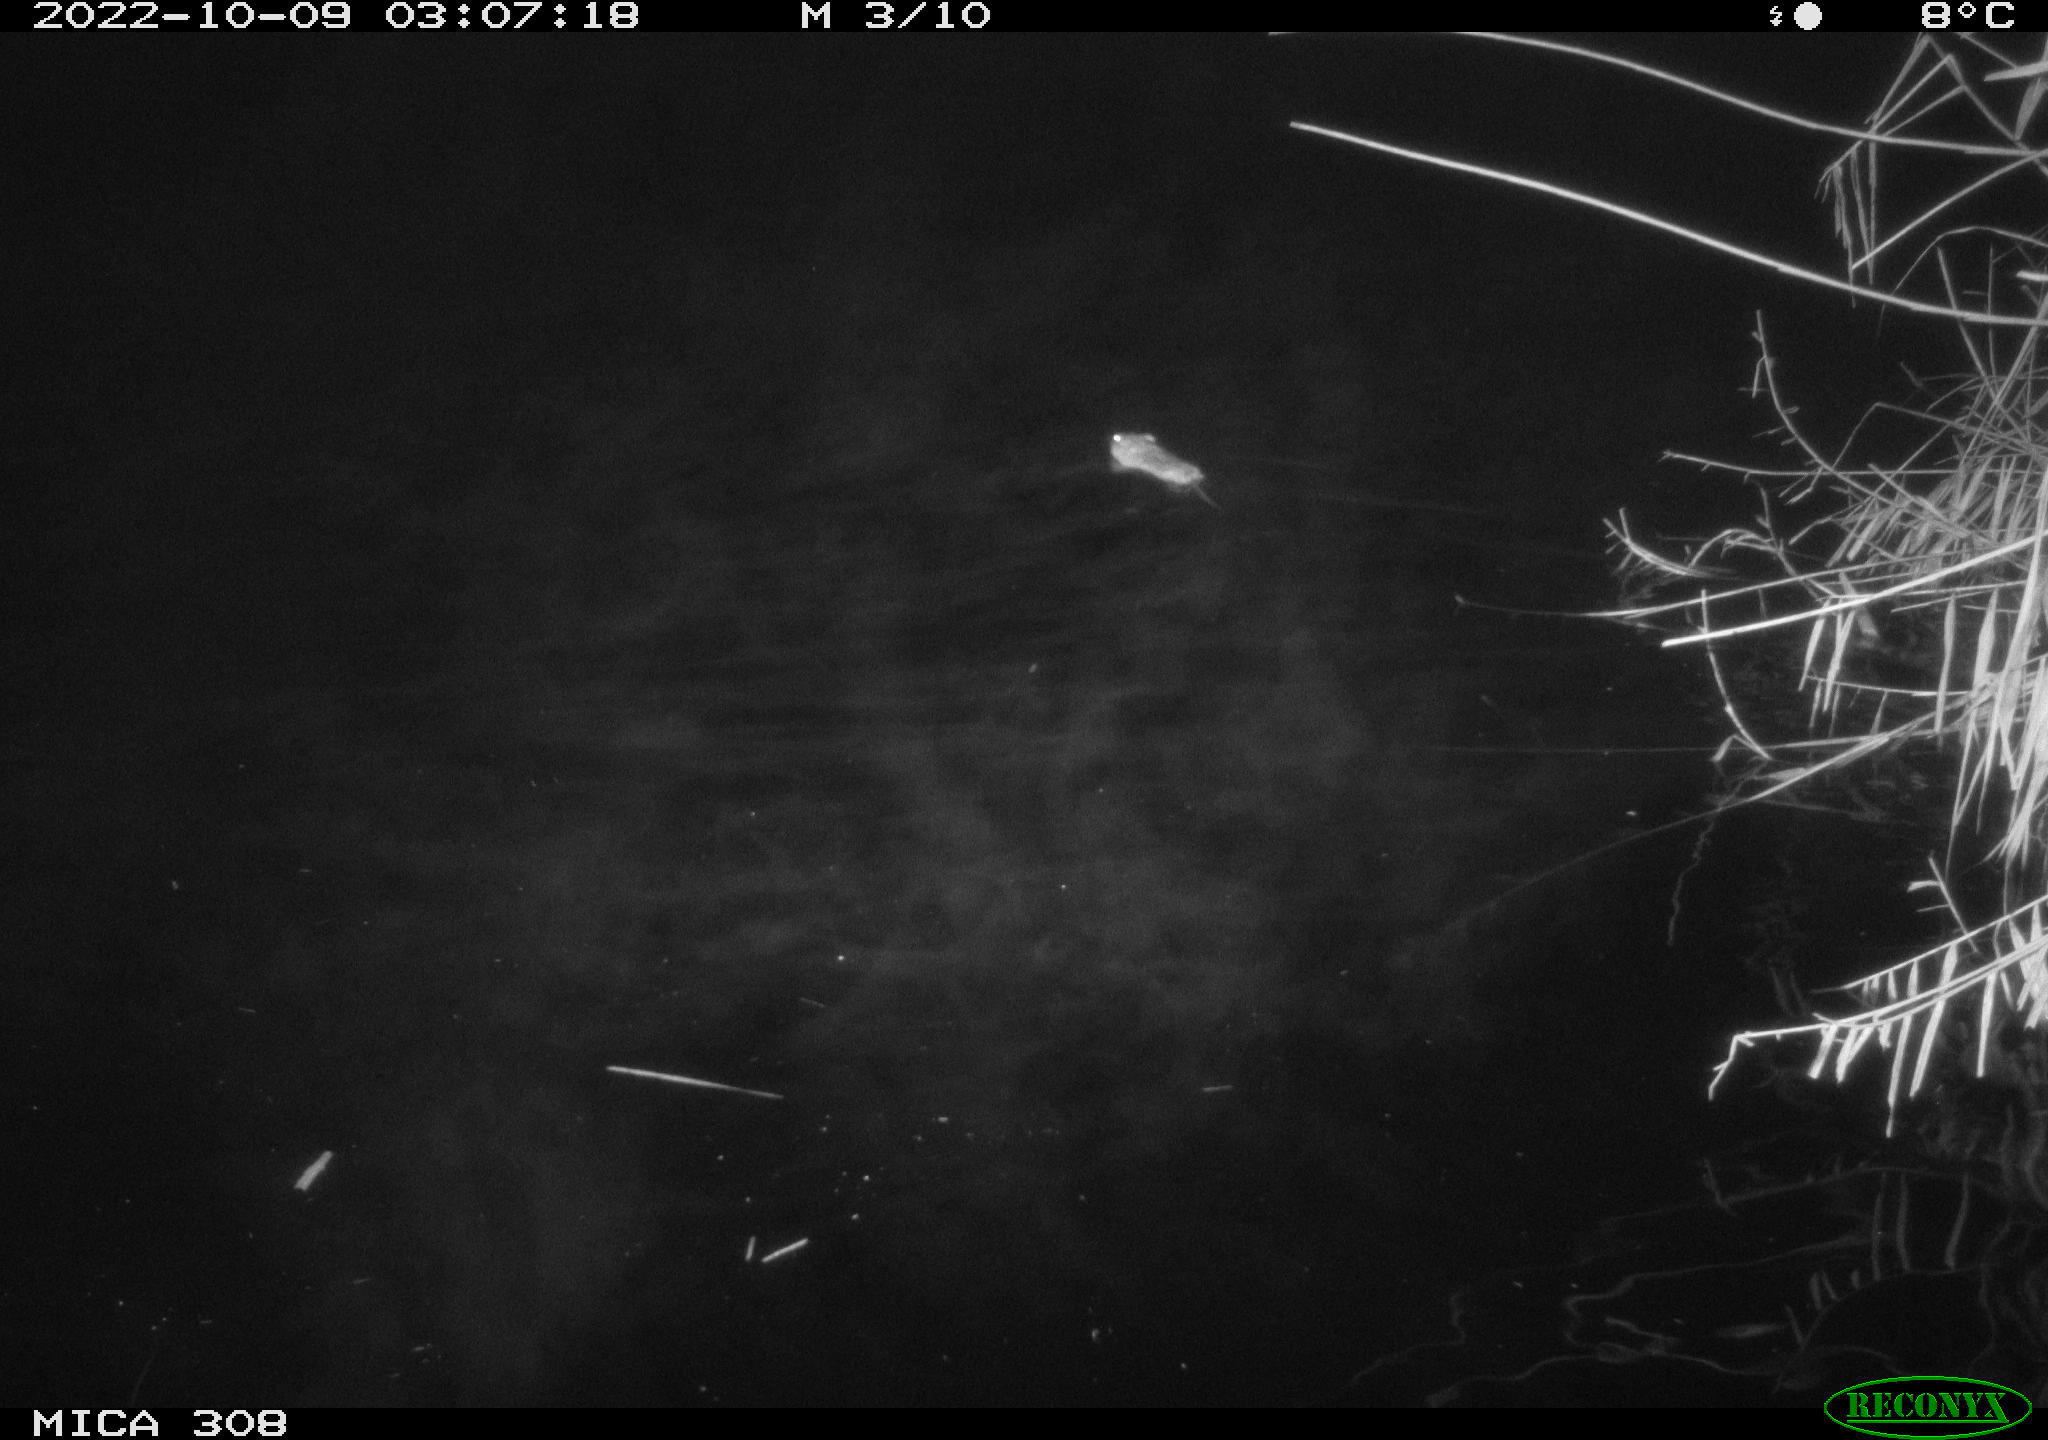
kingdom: Animalia
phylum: Chordata
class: Mammalia
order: Rodentia
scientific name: Rodentia
